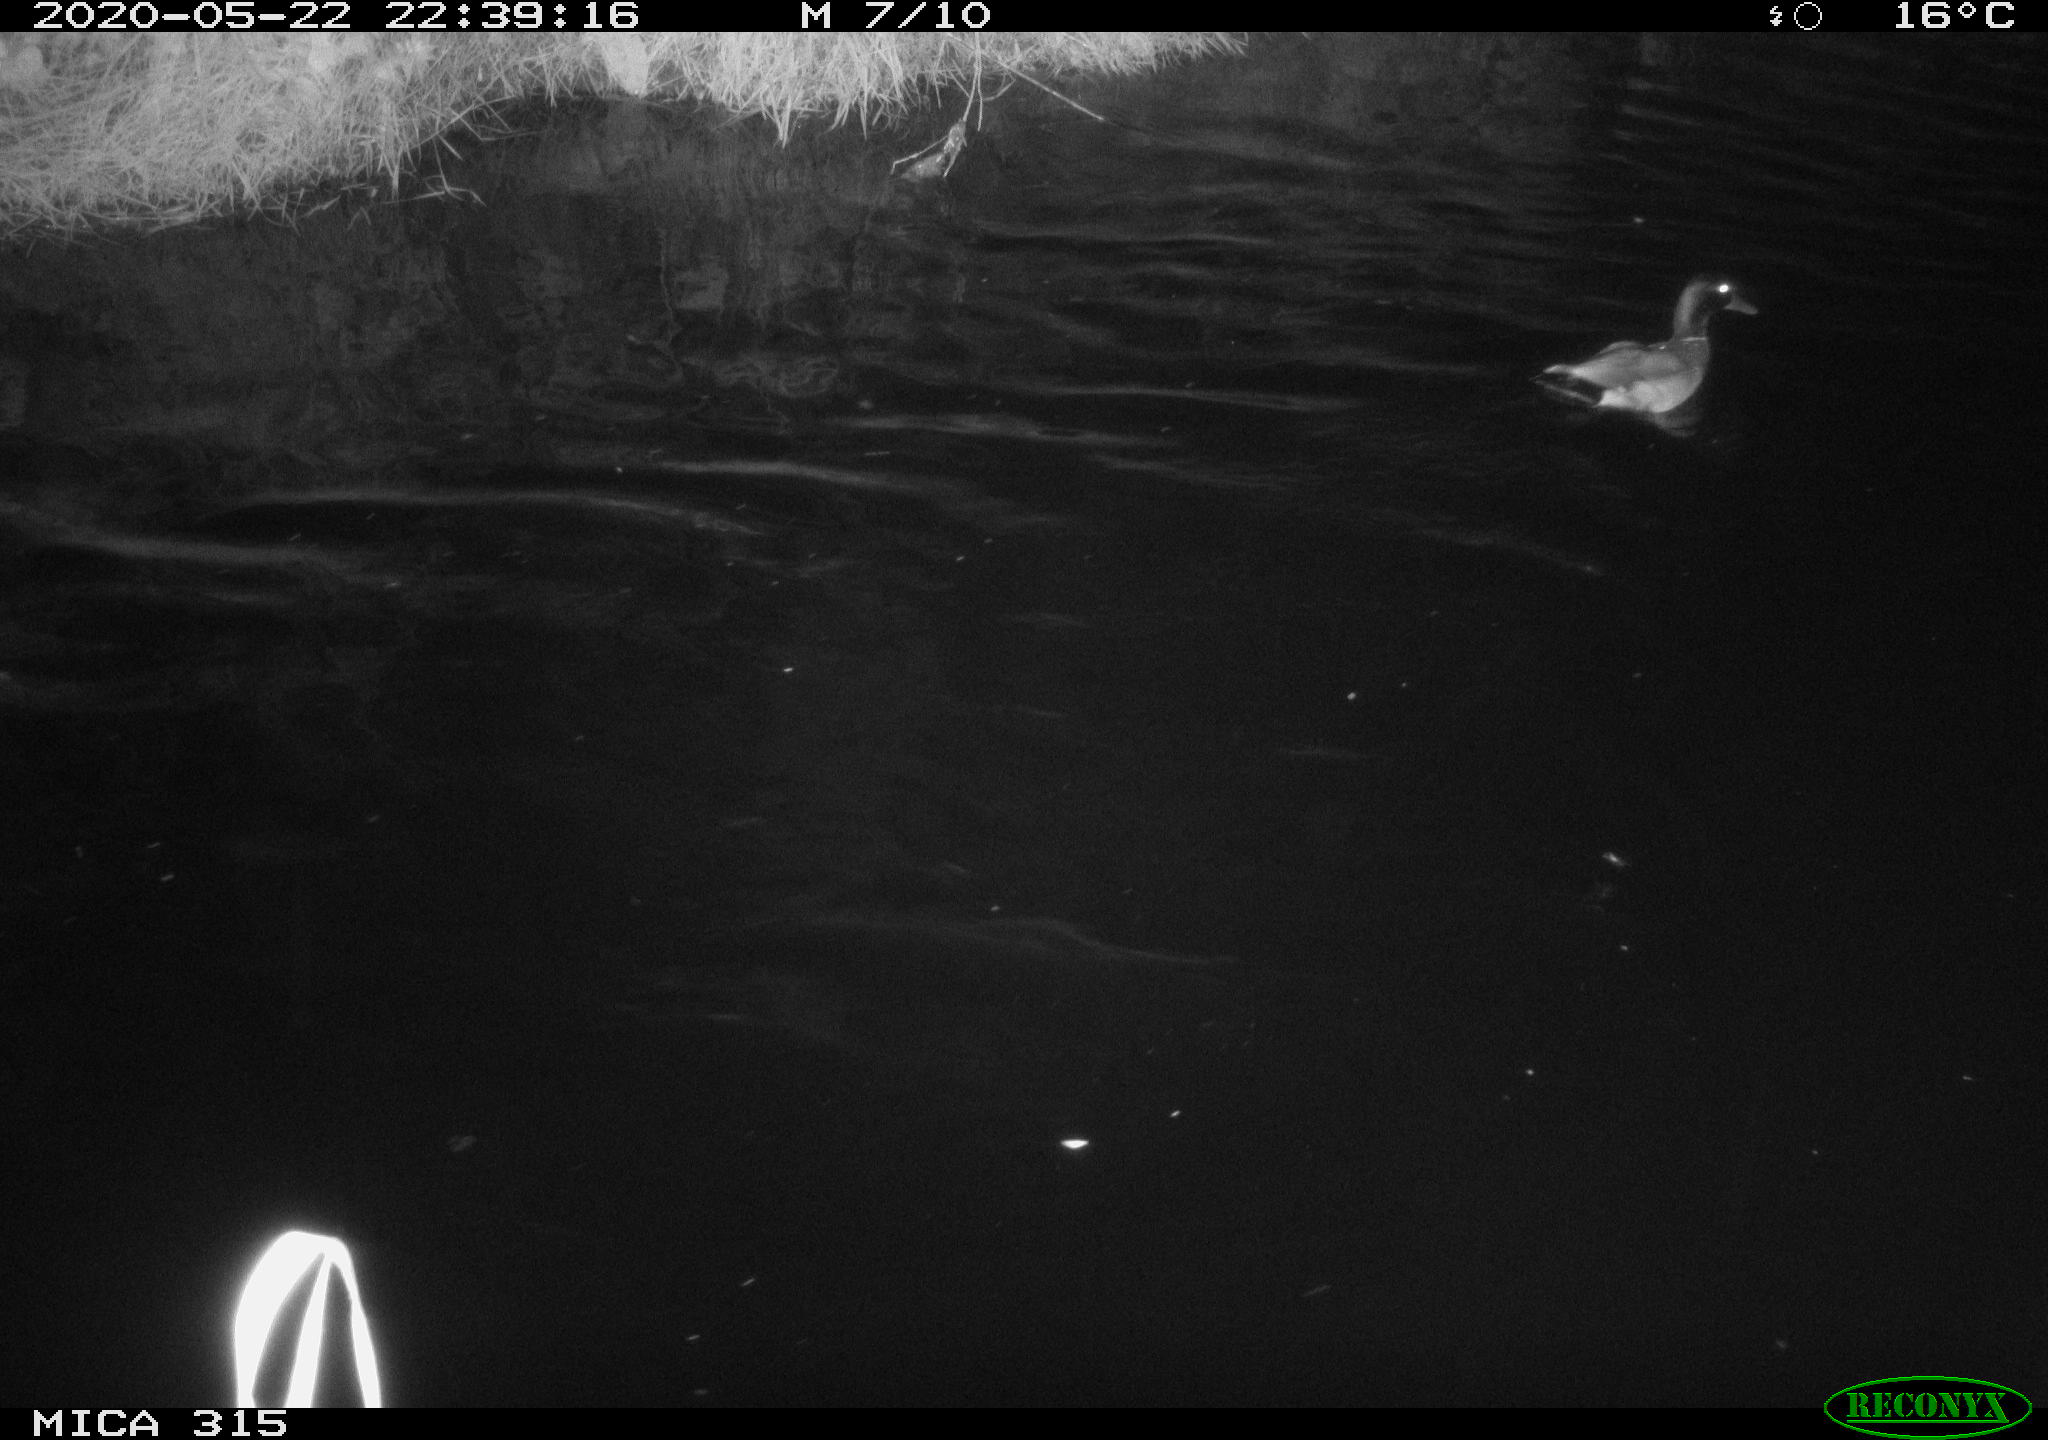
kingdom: Animalia
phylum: Chordata
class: Aves
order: Anseriformes
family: Anatidae
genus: Anas
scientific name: Anas platyrhynchos
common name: Mallard
